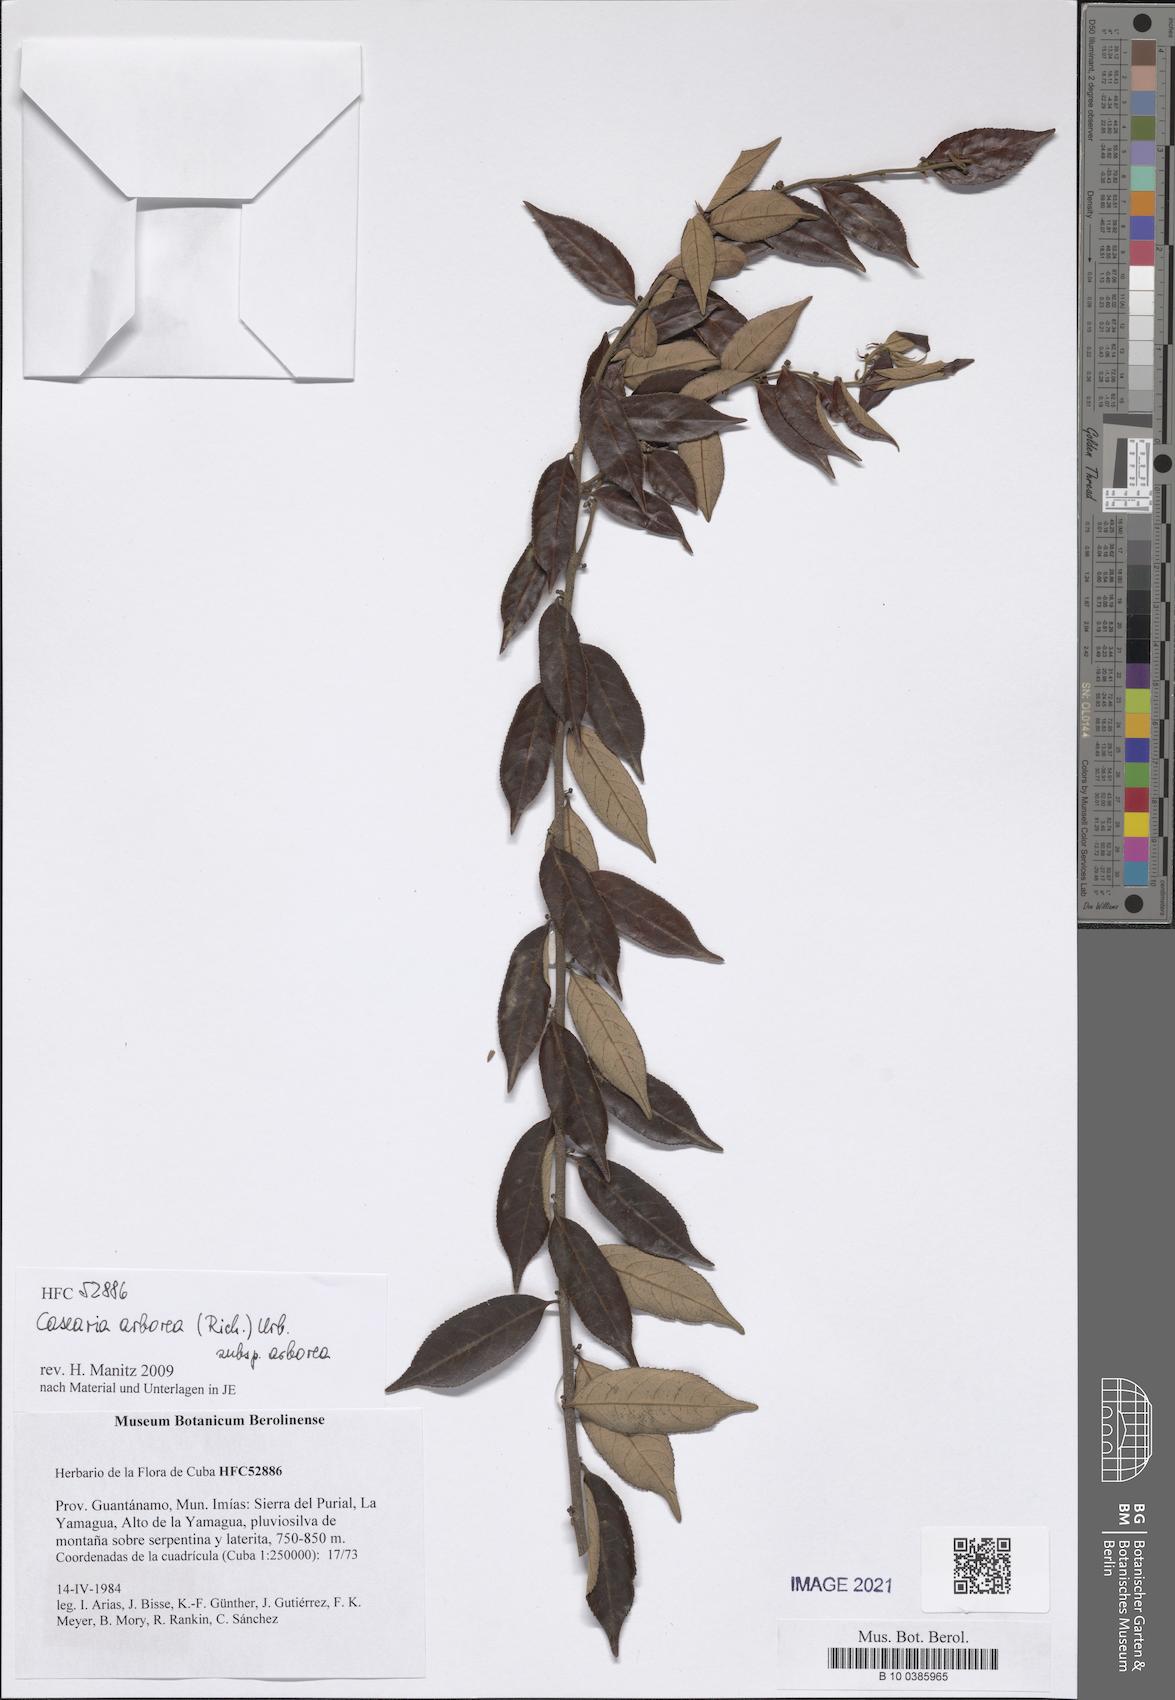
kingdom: Plantae
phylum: Tracheophyta
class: Magnoliopsida
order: Malpighiales
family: Salicaceae
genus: Casearia
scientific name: Casearia arborea
